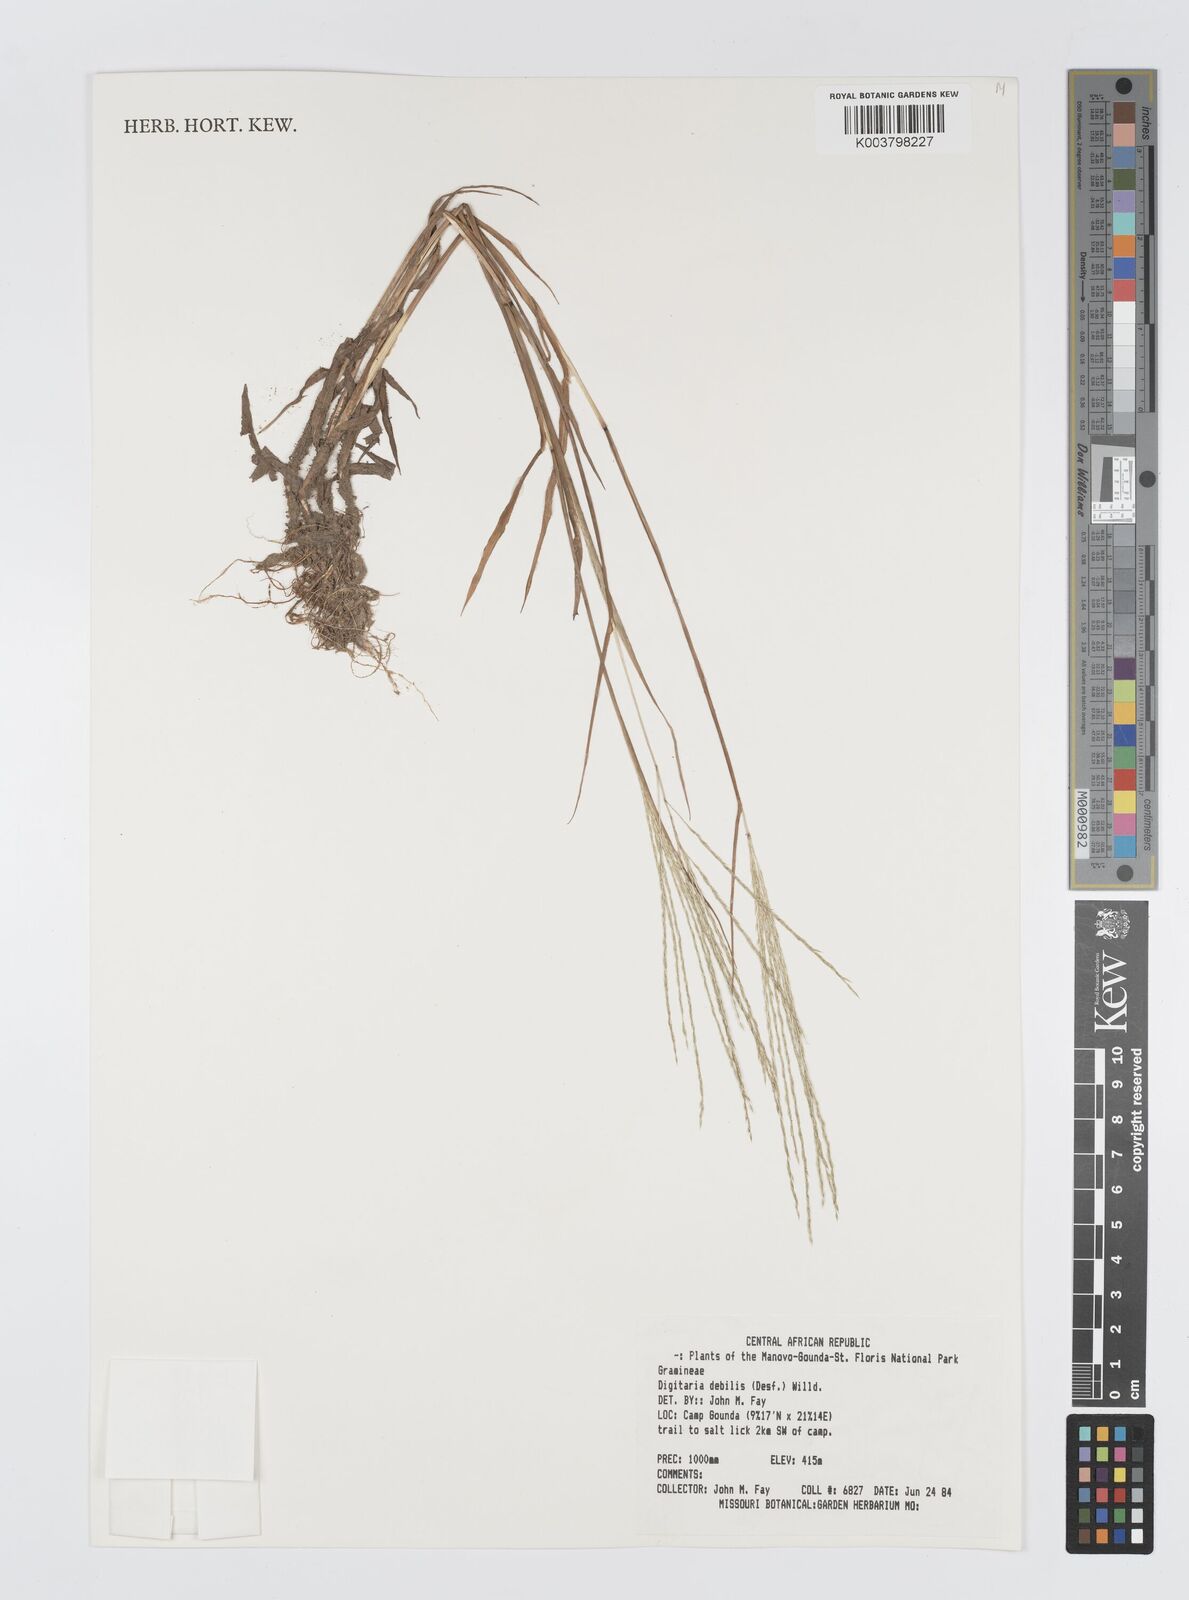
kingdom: Plantae
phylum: Tracheophyta
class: Liliopsida
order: Poales
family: Poaceae
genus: Digitaria
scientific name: Digitaria debilis
